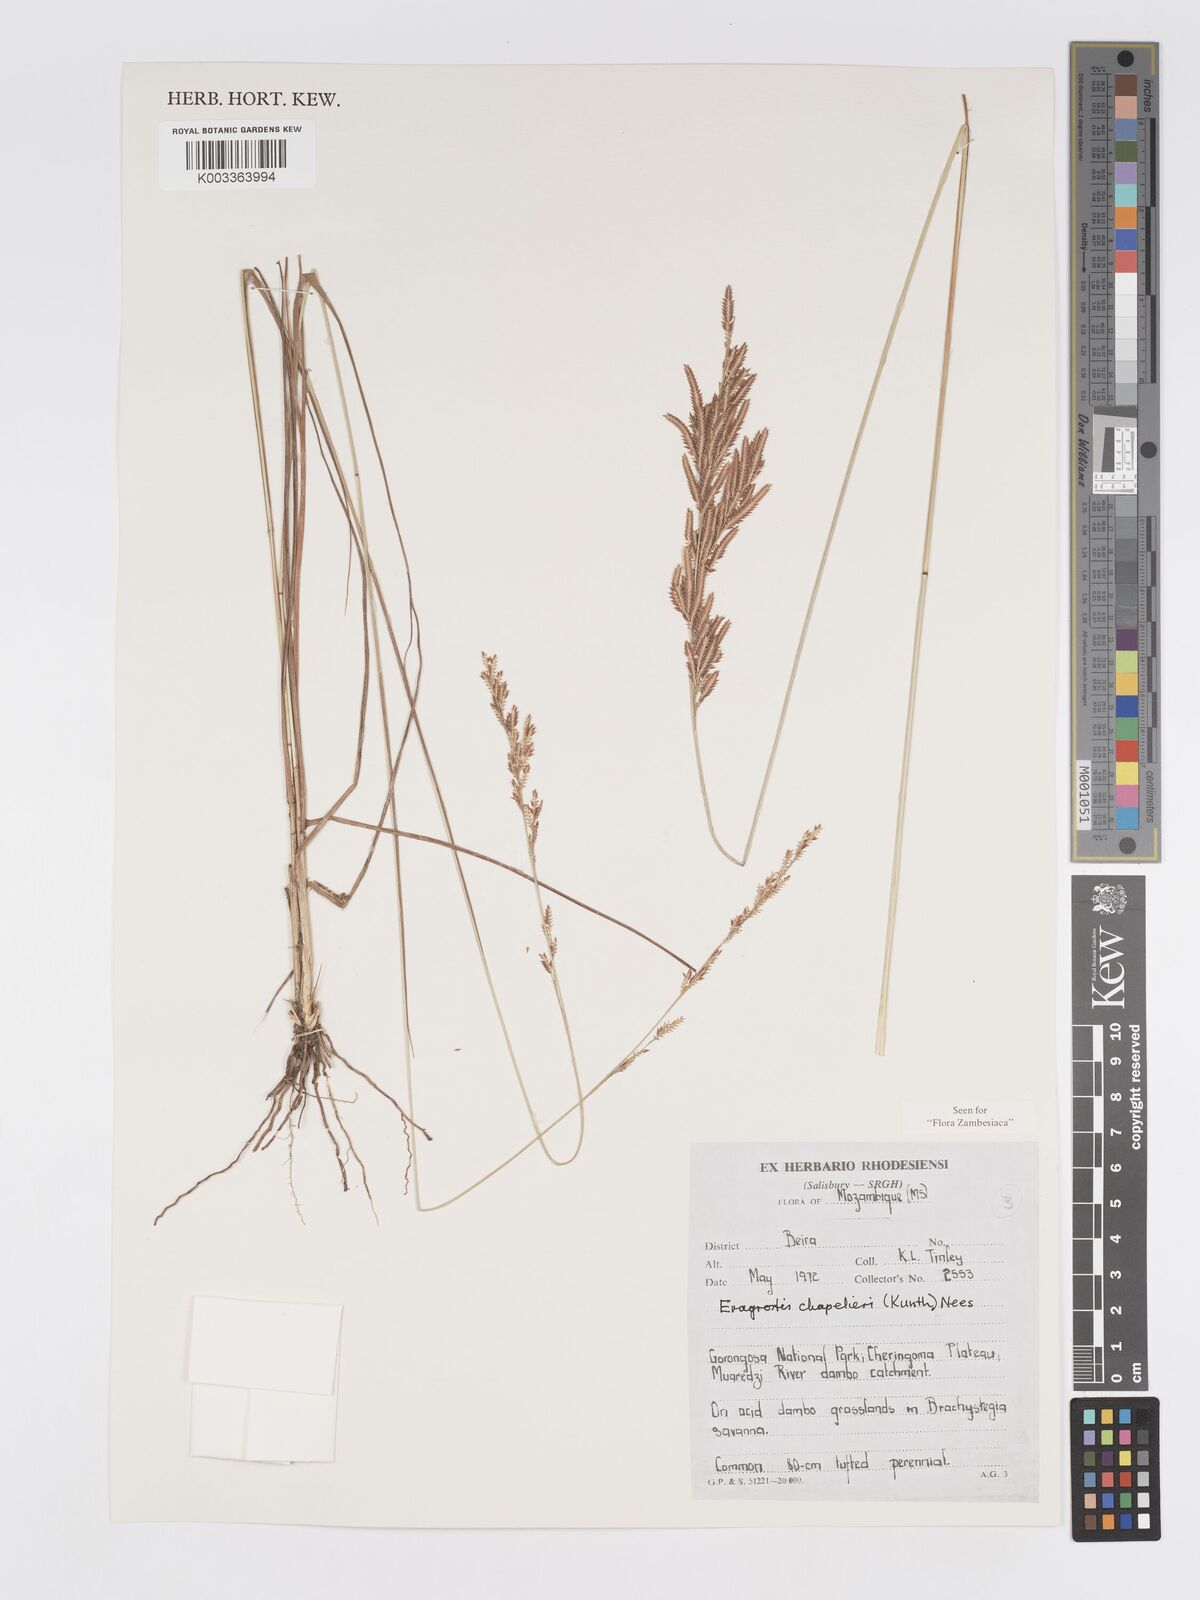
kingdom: Plantae
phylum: Tracheophyta
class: Liliopsida
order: Poales
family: Poaceae
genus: Eragrostis
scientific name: Eragrostis chapelieri
